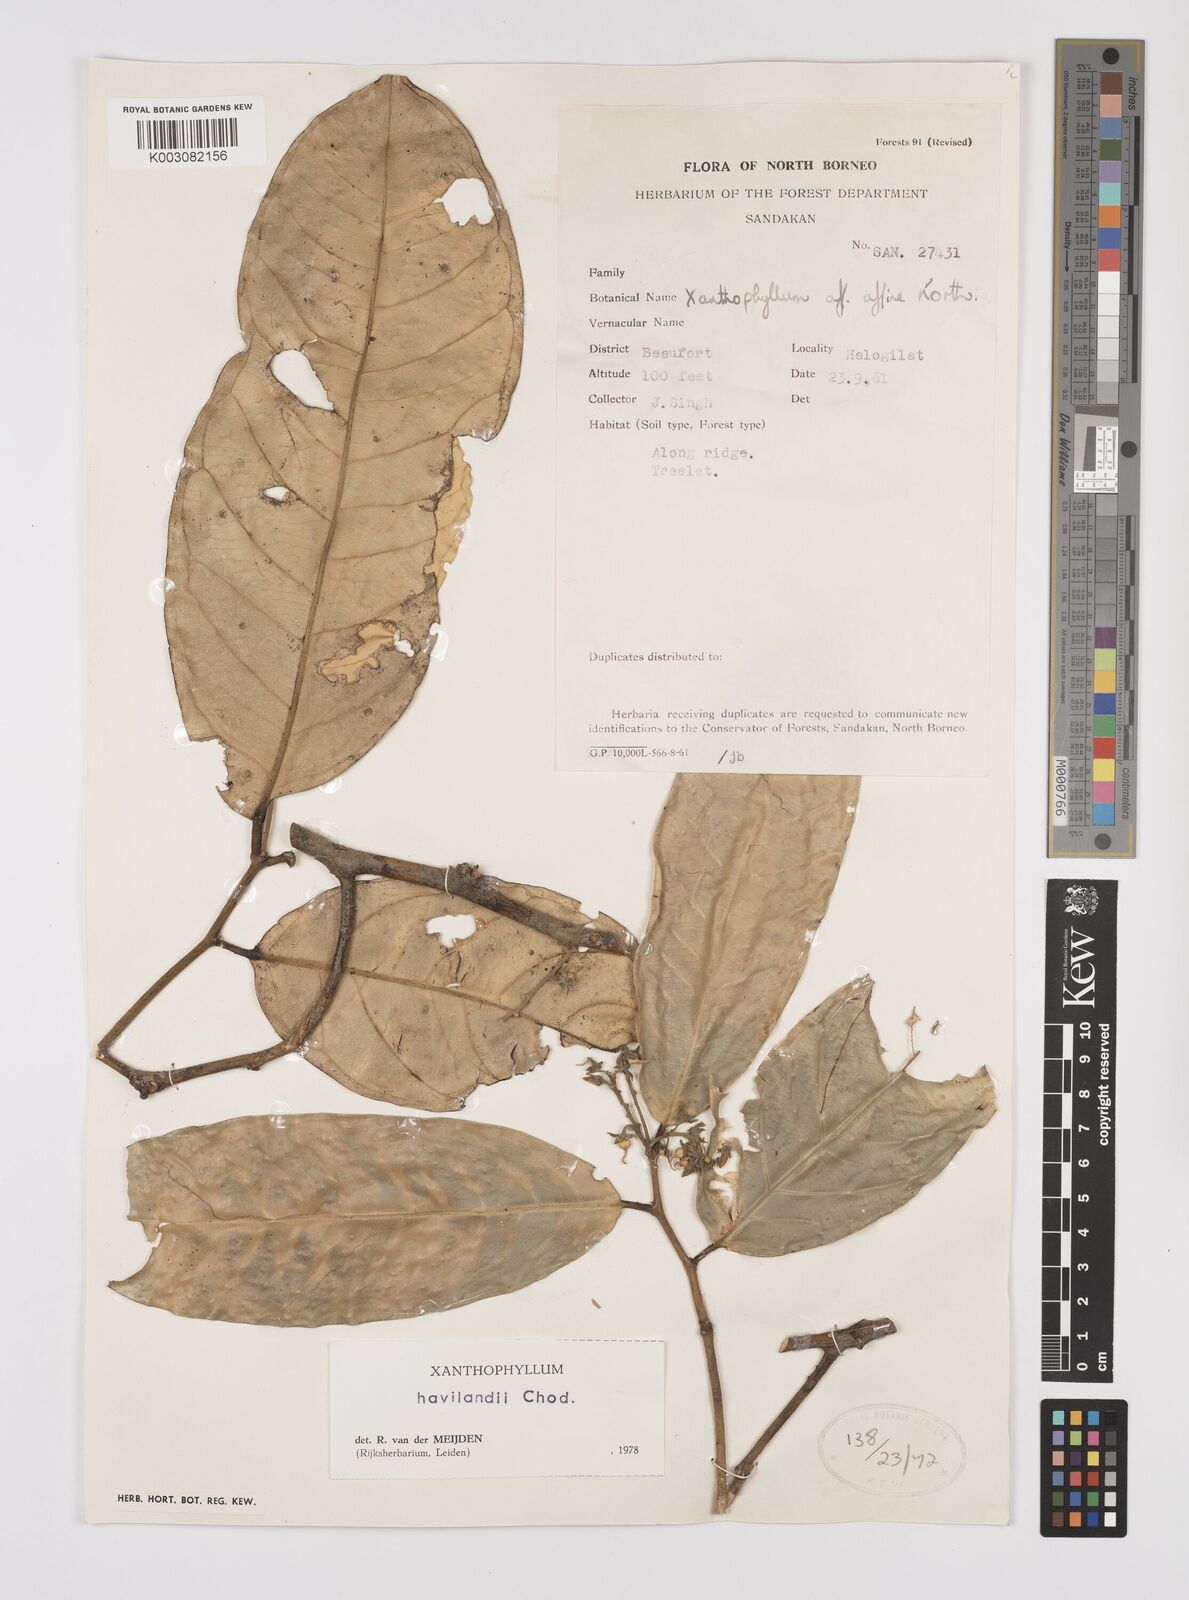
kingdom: Plantae
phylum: Tracheophyta
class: Magnoliopsida
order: Fabales
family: Polygalaceae
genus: Xanthophyllum
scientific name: Xanthophyllum havilandii
